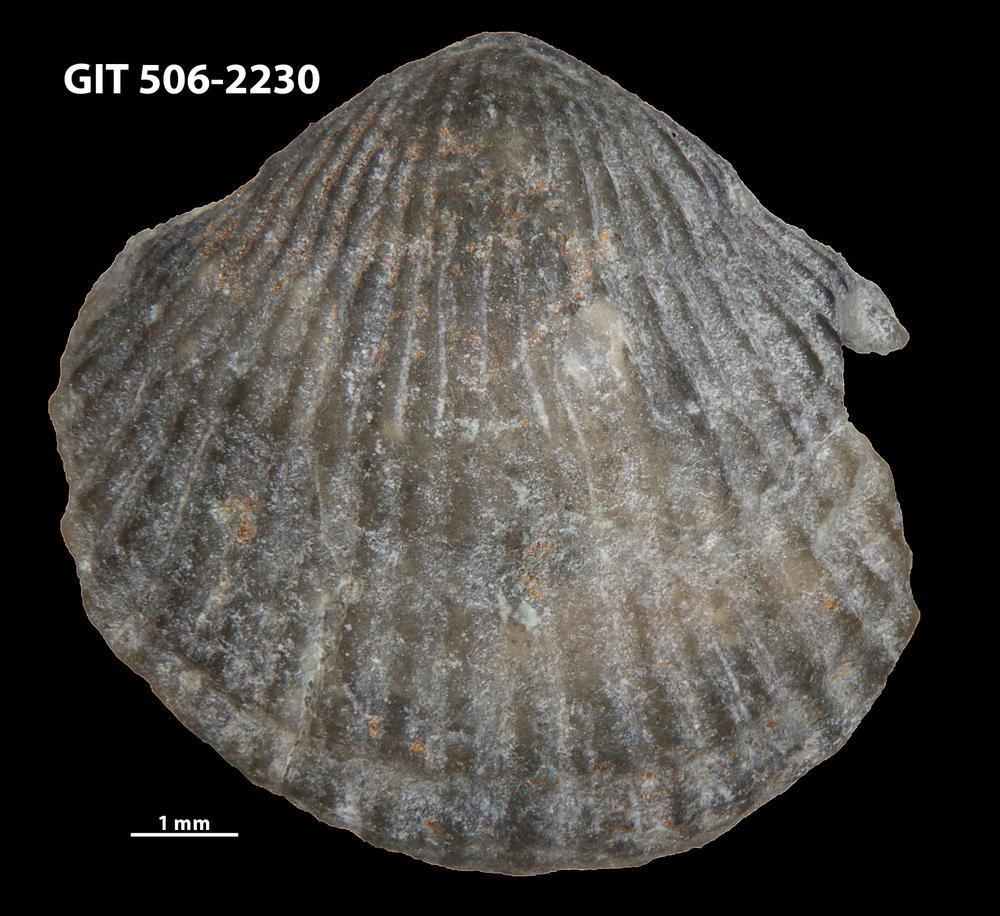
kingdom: Animalia
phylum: Brachiopoda
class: Rhynchonellata
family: Skenidiidae
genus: Skenidioides
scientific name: Skenidioides hymiri
